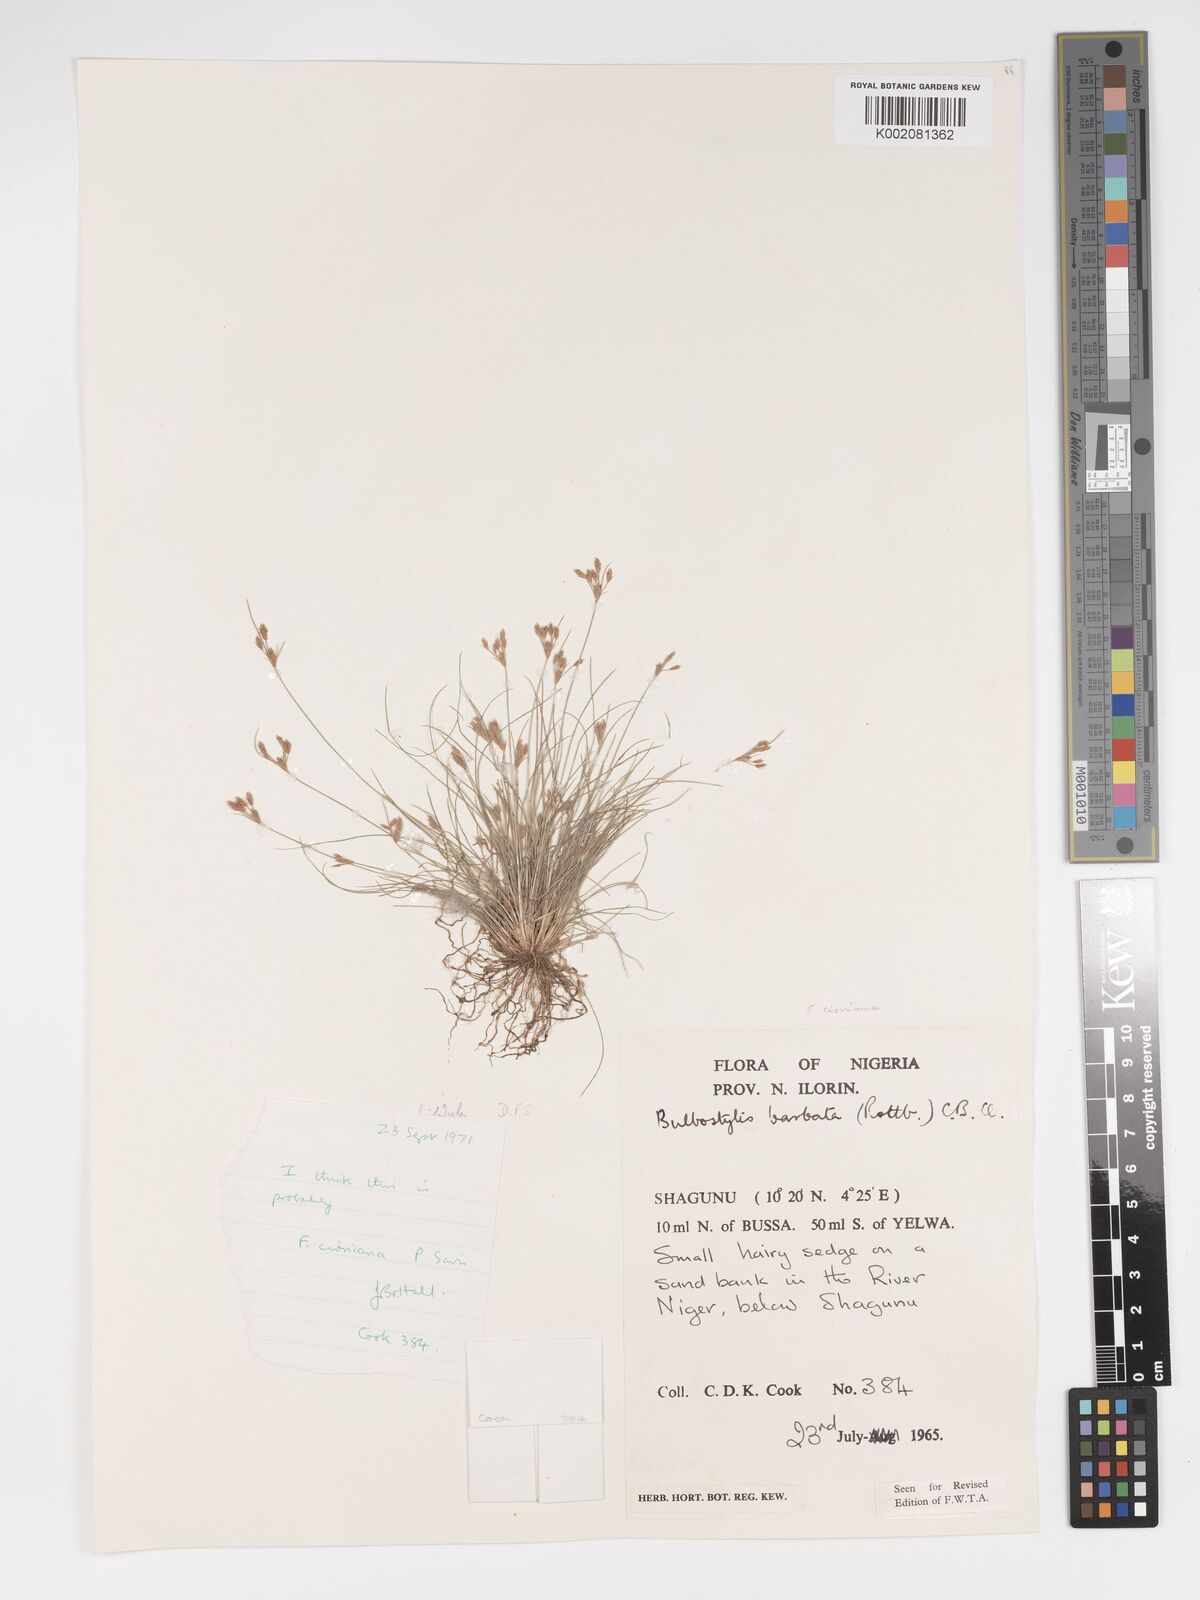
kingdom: Plantae
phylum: Tracheophyta
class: Liliopsida
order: Poales
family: Cyperaceae
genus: Bulbostylis
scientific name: Bulbostylis hispidula
